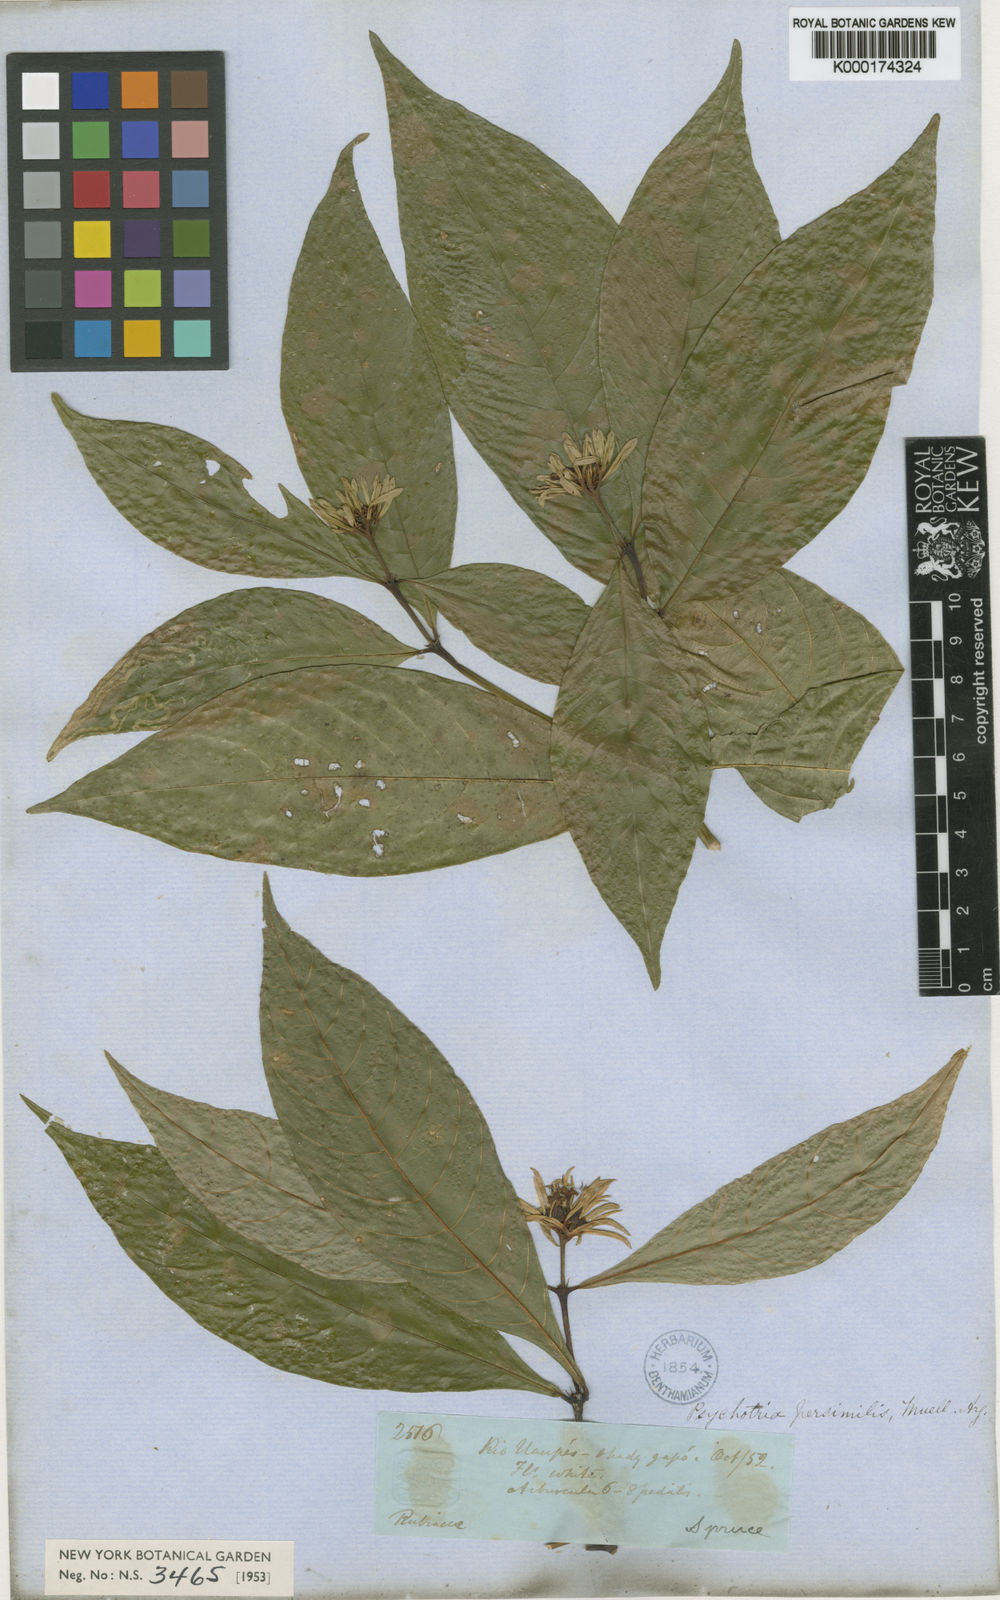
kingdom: Plantae
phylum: Tracheophyta
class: Magnoliopsida
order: Gentianales
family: Rubiaceae
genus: Palicourea
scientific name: Palicourea justiciifolia
